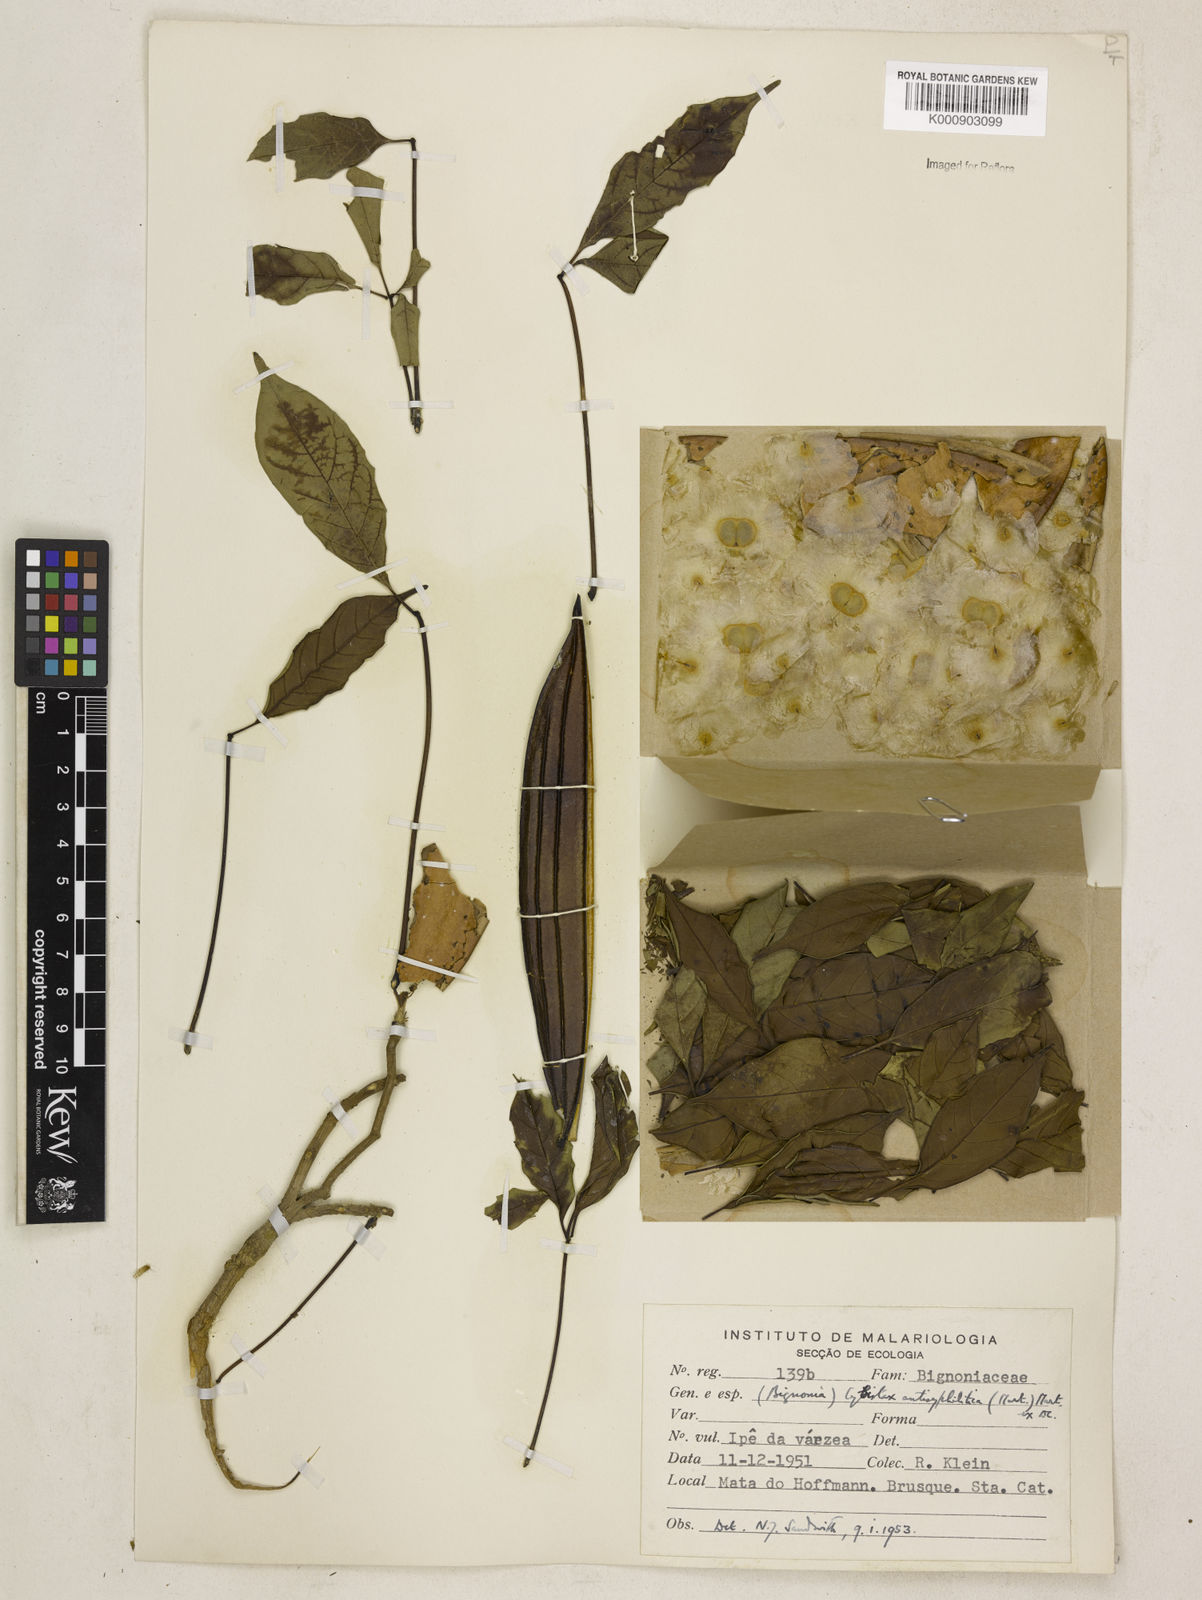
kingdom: Plantae
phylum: Tracheophyta
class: Magnoliopsida
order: Lamiales
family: Bignoniaceae
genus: Cybistax
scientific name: Cybistax antisyphilitica
